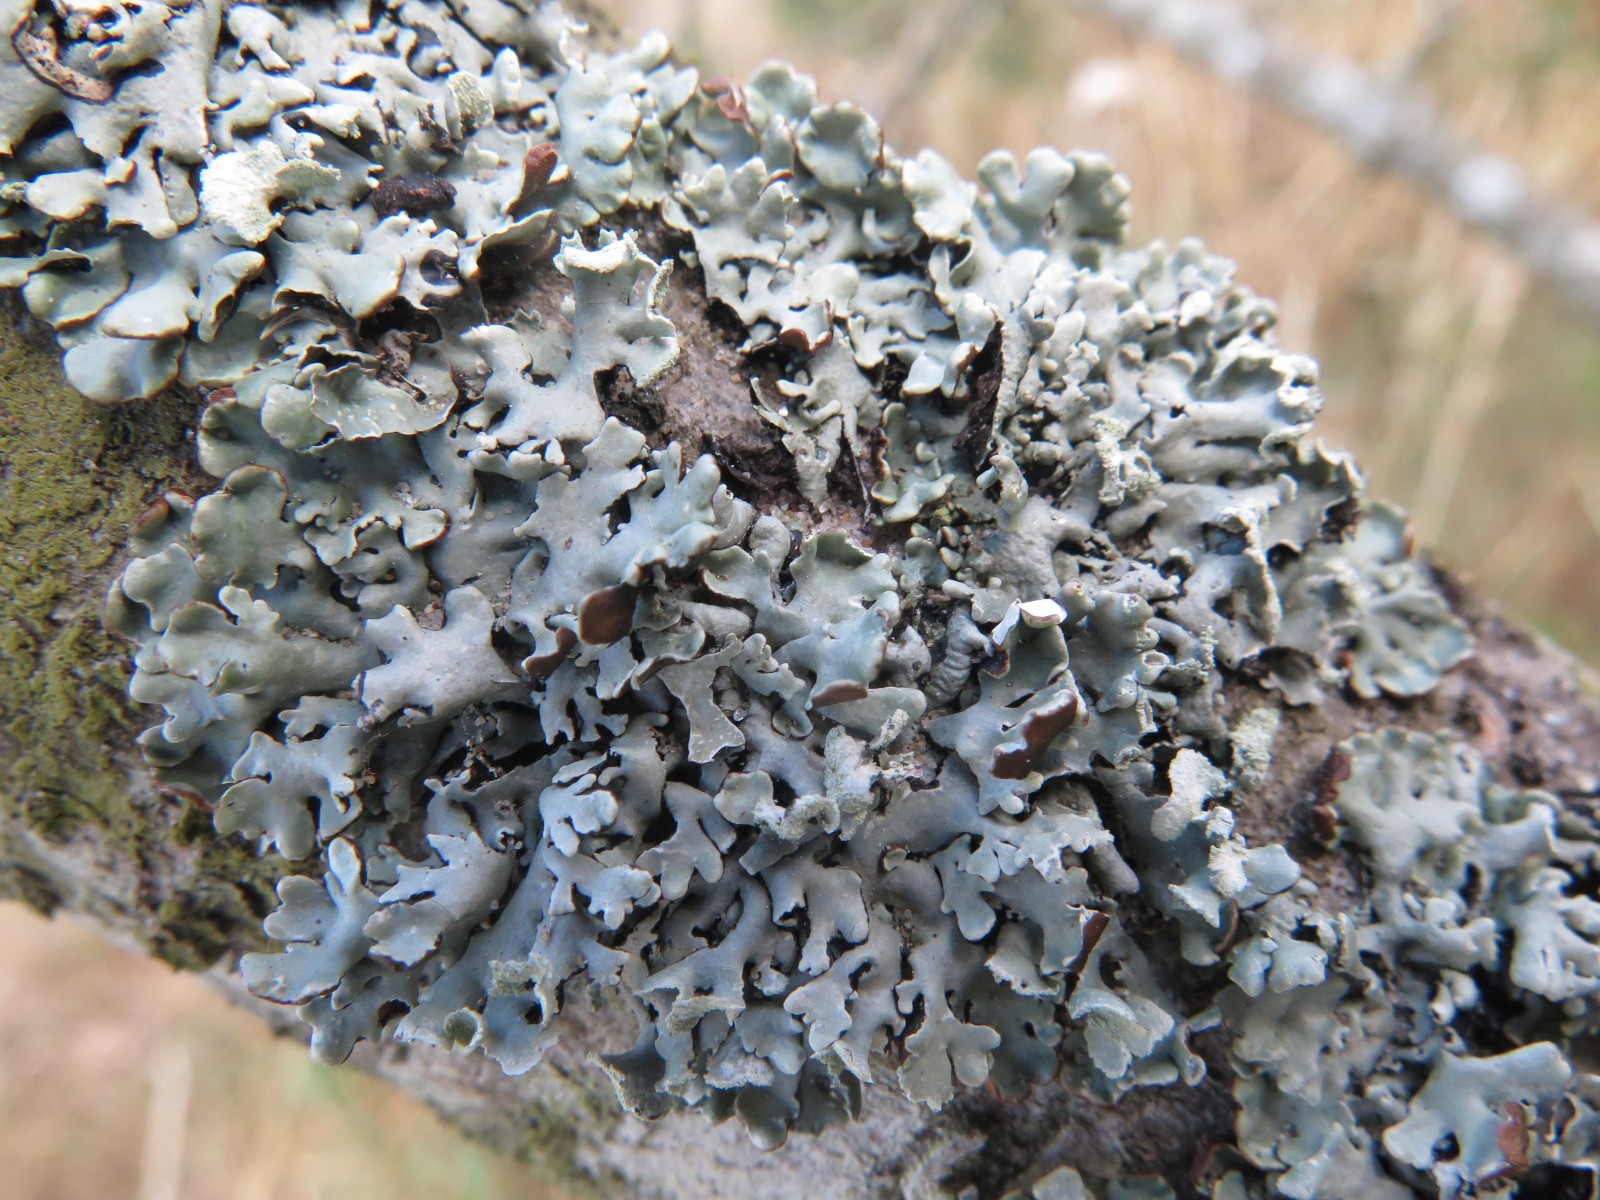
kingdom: Fungi
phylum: Ascomycota
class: Lecanoromycetes
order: Lecanorales
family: Parmeliaceae
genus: Hypogymnia
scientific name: Hypogymnia physodes
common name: almindelig kvistlav
